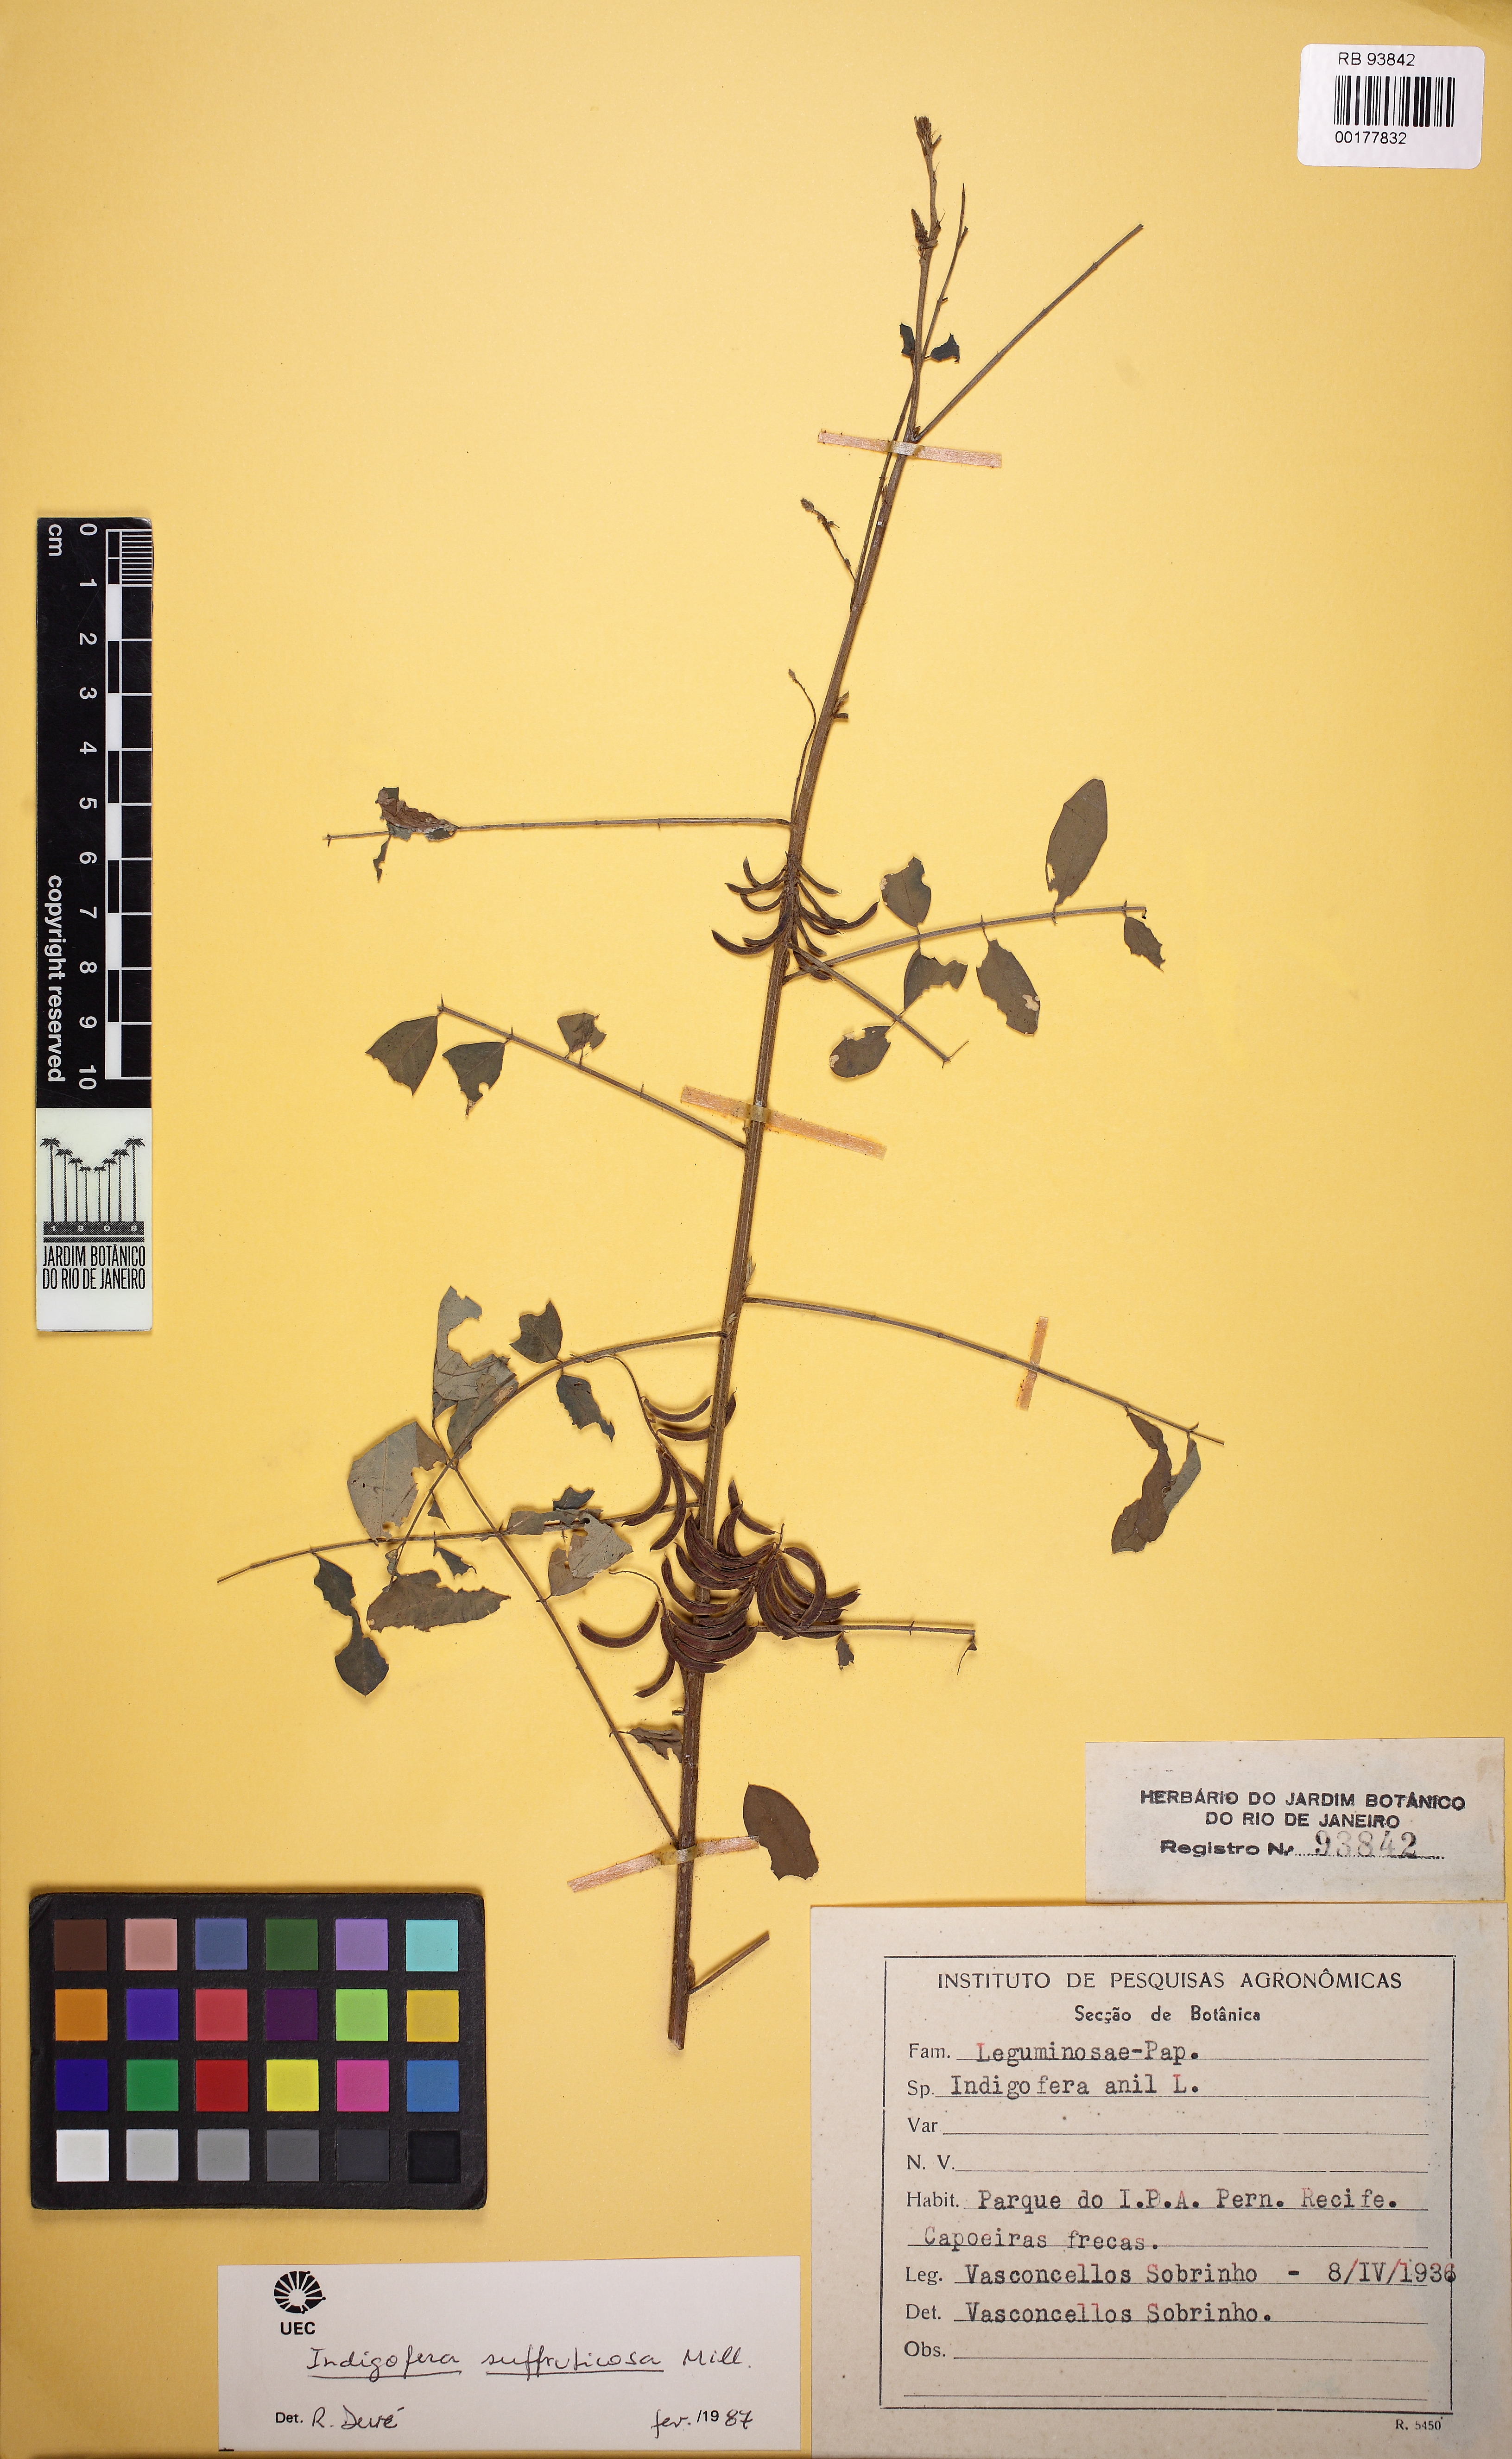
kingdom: Plantae
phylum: Tracheophyta
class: Magnoliopsida
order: Fabales
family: Fabaceae
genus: Indigofera
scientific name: Indigofera suffruticosa
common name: Anil de pasto
